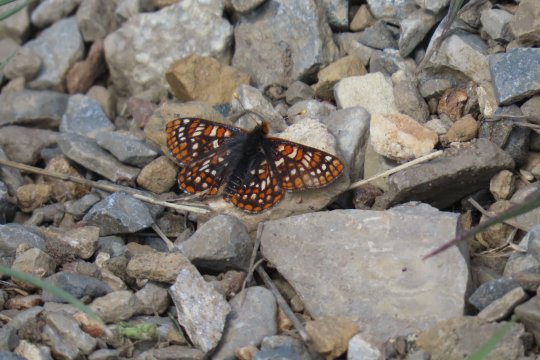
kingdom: Animalia
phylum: Arthropoda
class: Insecta
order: Lepidoptera
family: Nymphalidae
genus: Occidryas
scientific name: Occidryas anicia
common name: Anicia Checkerspot
